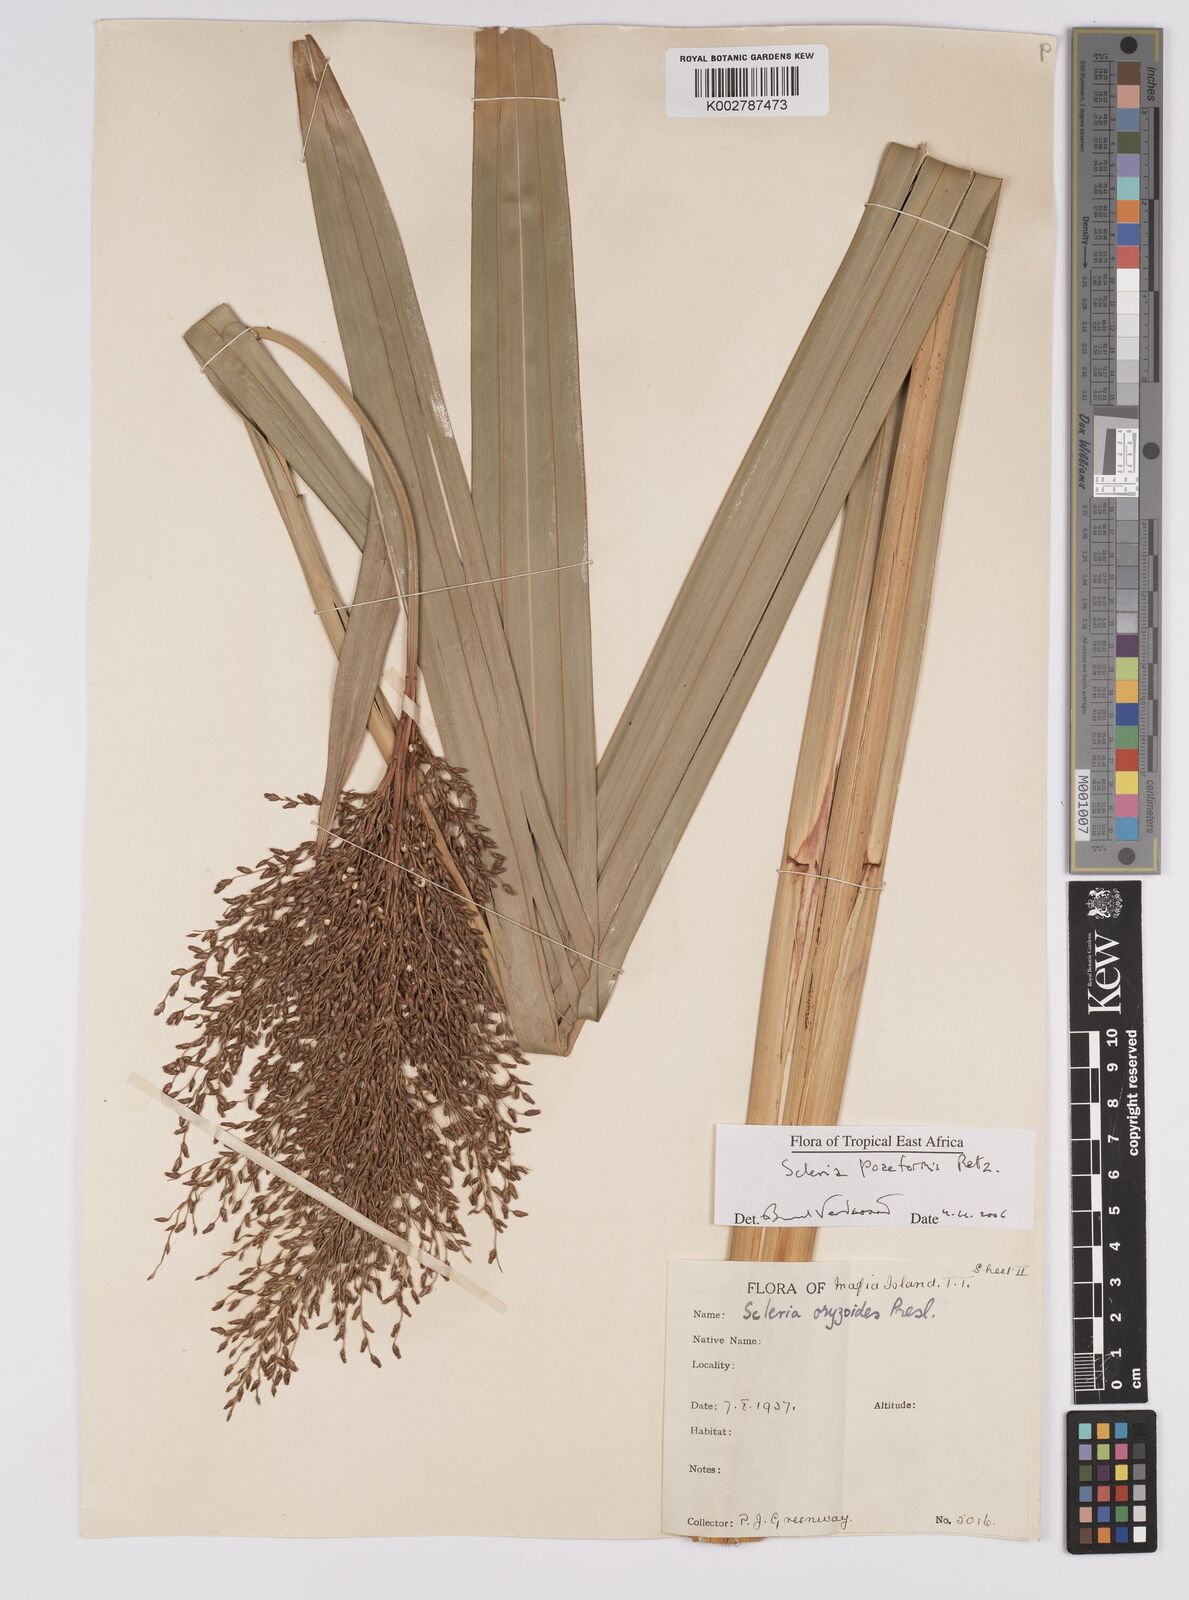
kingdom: Plantae
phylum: Tracheophyta
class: Liliopsida
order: Poales
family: Cyperaceae
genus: Scleria
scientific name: Scleria poiformis
